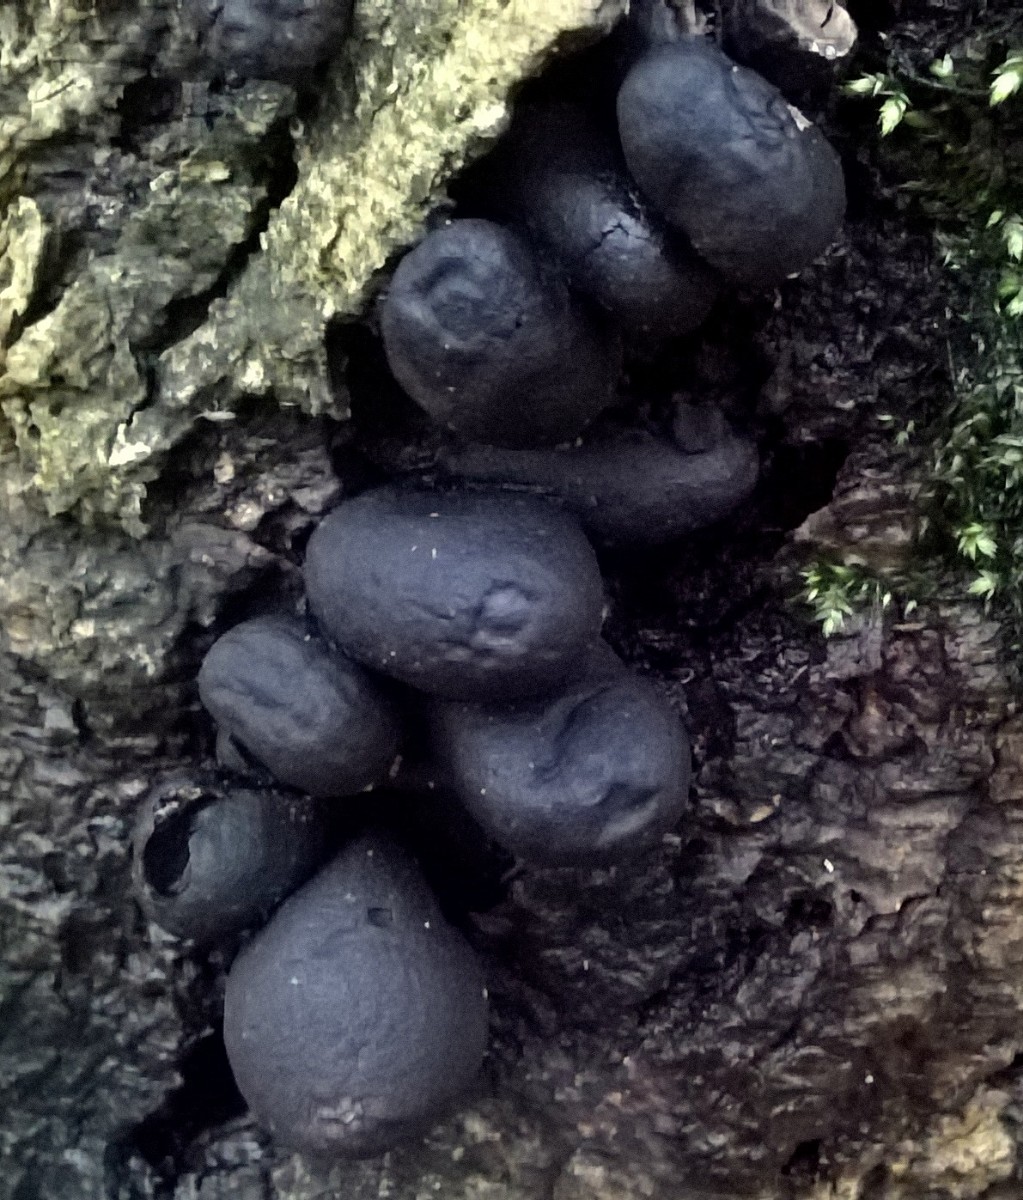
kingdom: Fungi
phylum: Ascomycota
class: Sordariomycetes
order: Xylariales
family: Xylariaceae
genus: Xylaria
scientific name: Xylaria polymorpha
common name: kølle-stødsvamp
